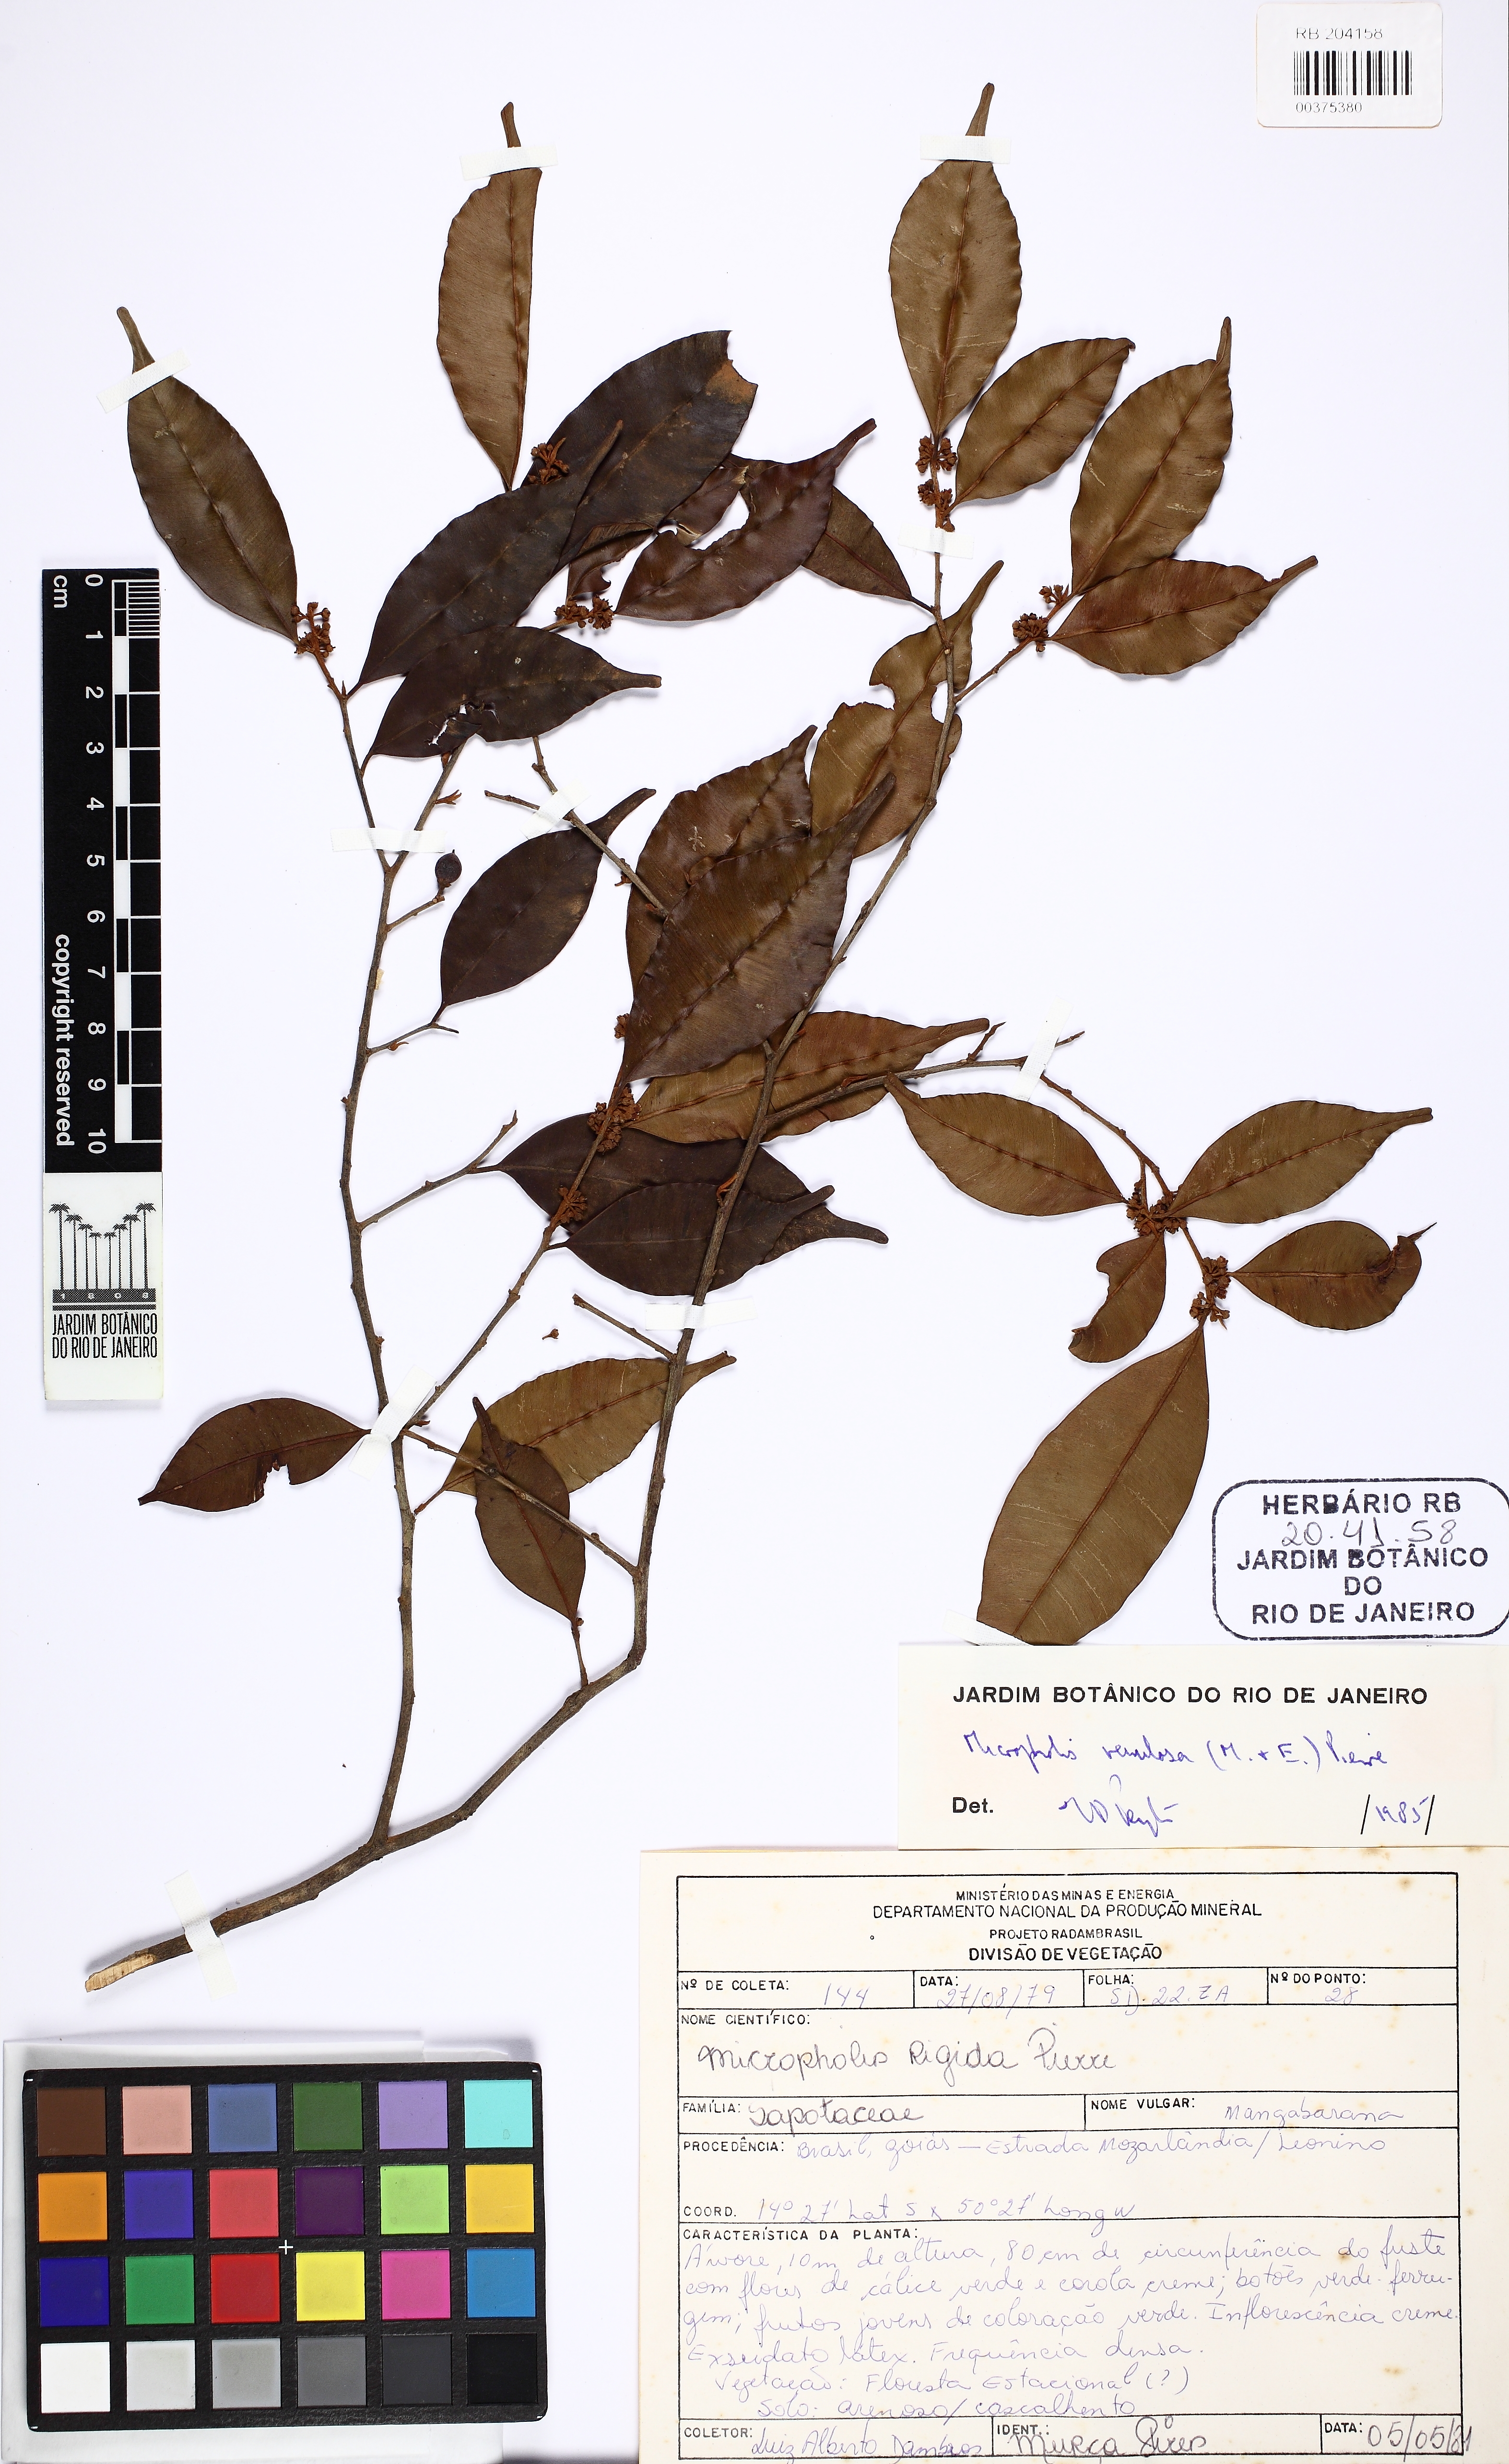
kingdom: Plantae
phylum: Tracheophyta
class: Magnoliopsida
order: Ericales
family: Sapotaceae
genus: Micropholis
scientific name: Micropholis venulosa
